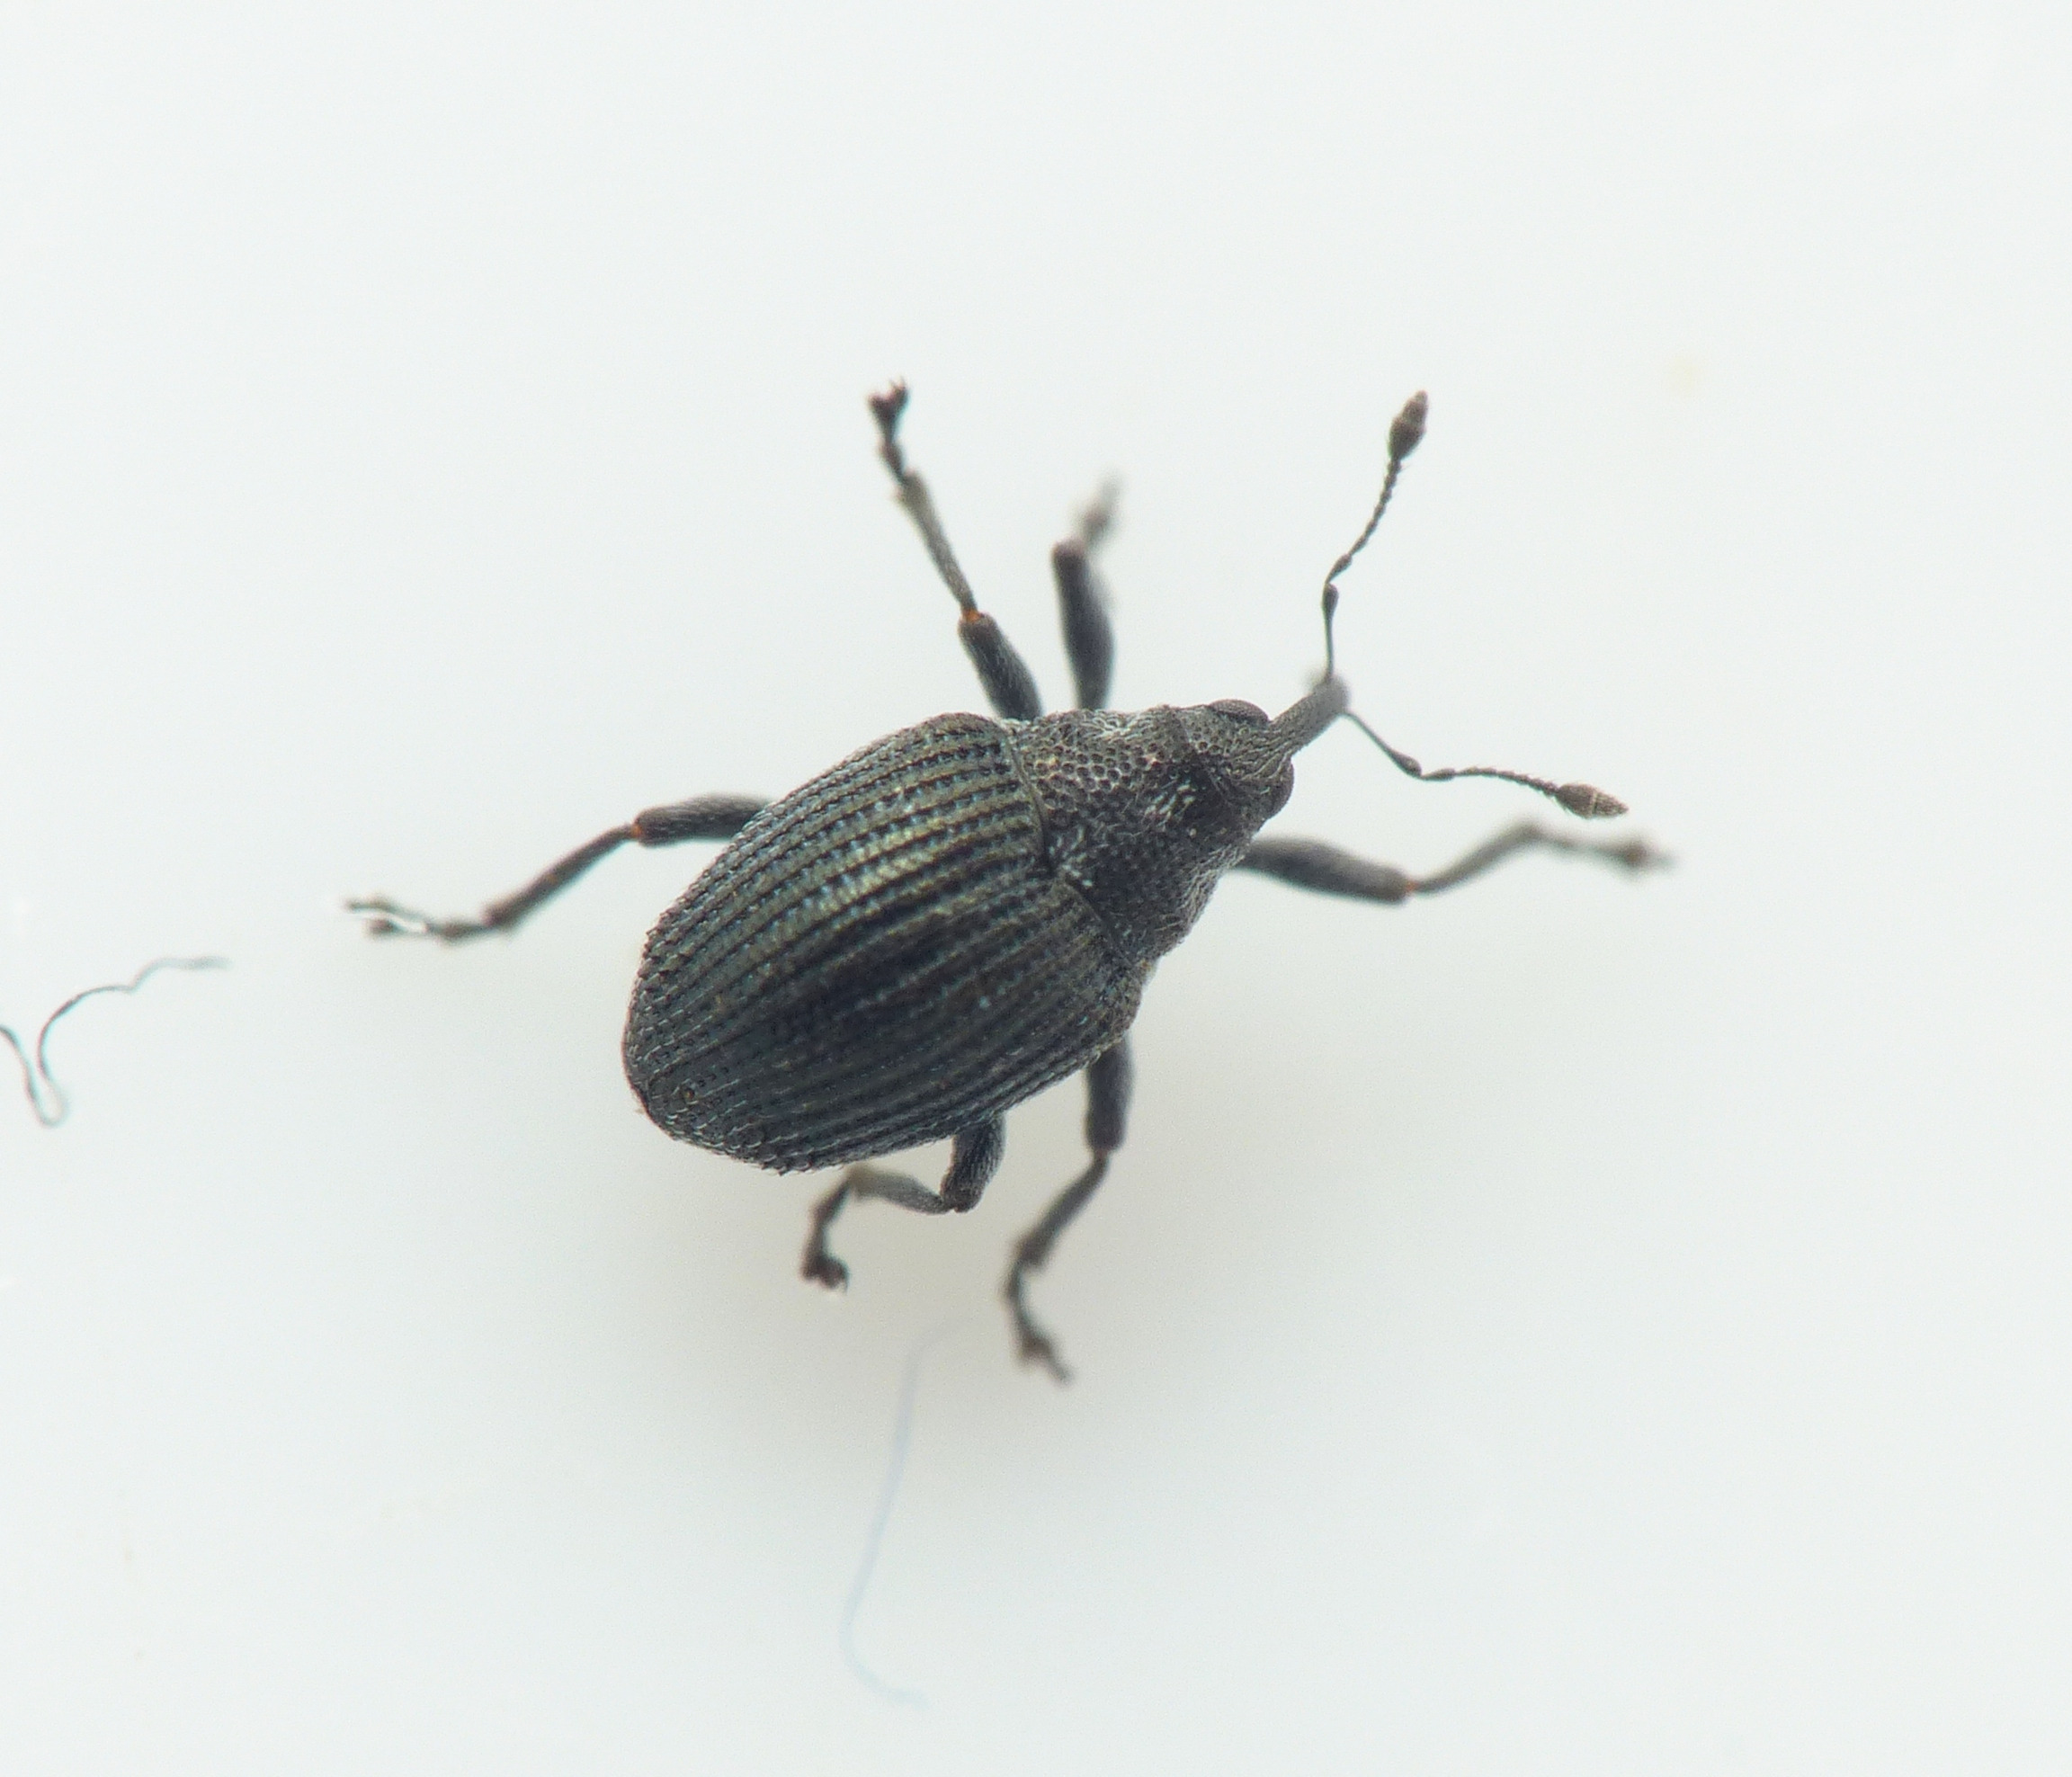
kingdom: Animalia
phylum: Arthropoda
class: Insecta
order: Coleoptera
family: Curculionidae
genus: Ceutorhynchus
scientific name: Ceutorhynchus contractus
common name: Gyldenlaksnudebille
